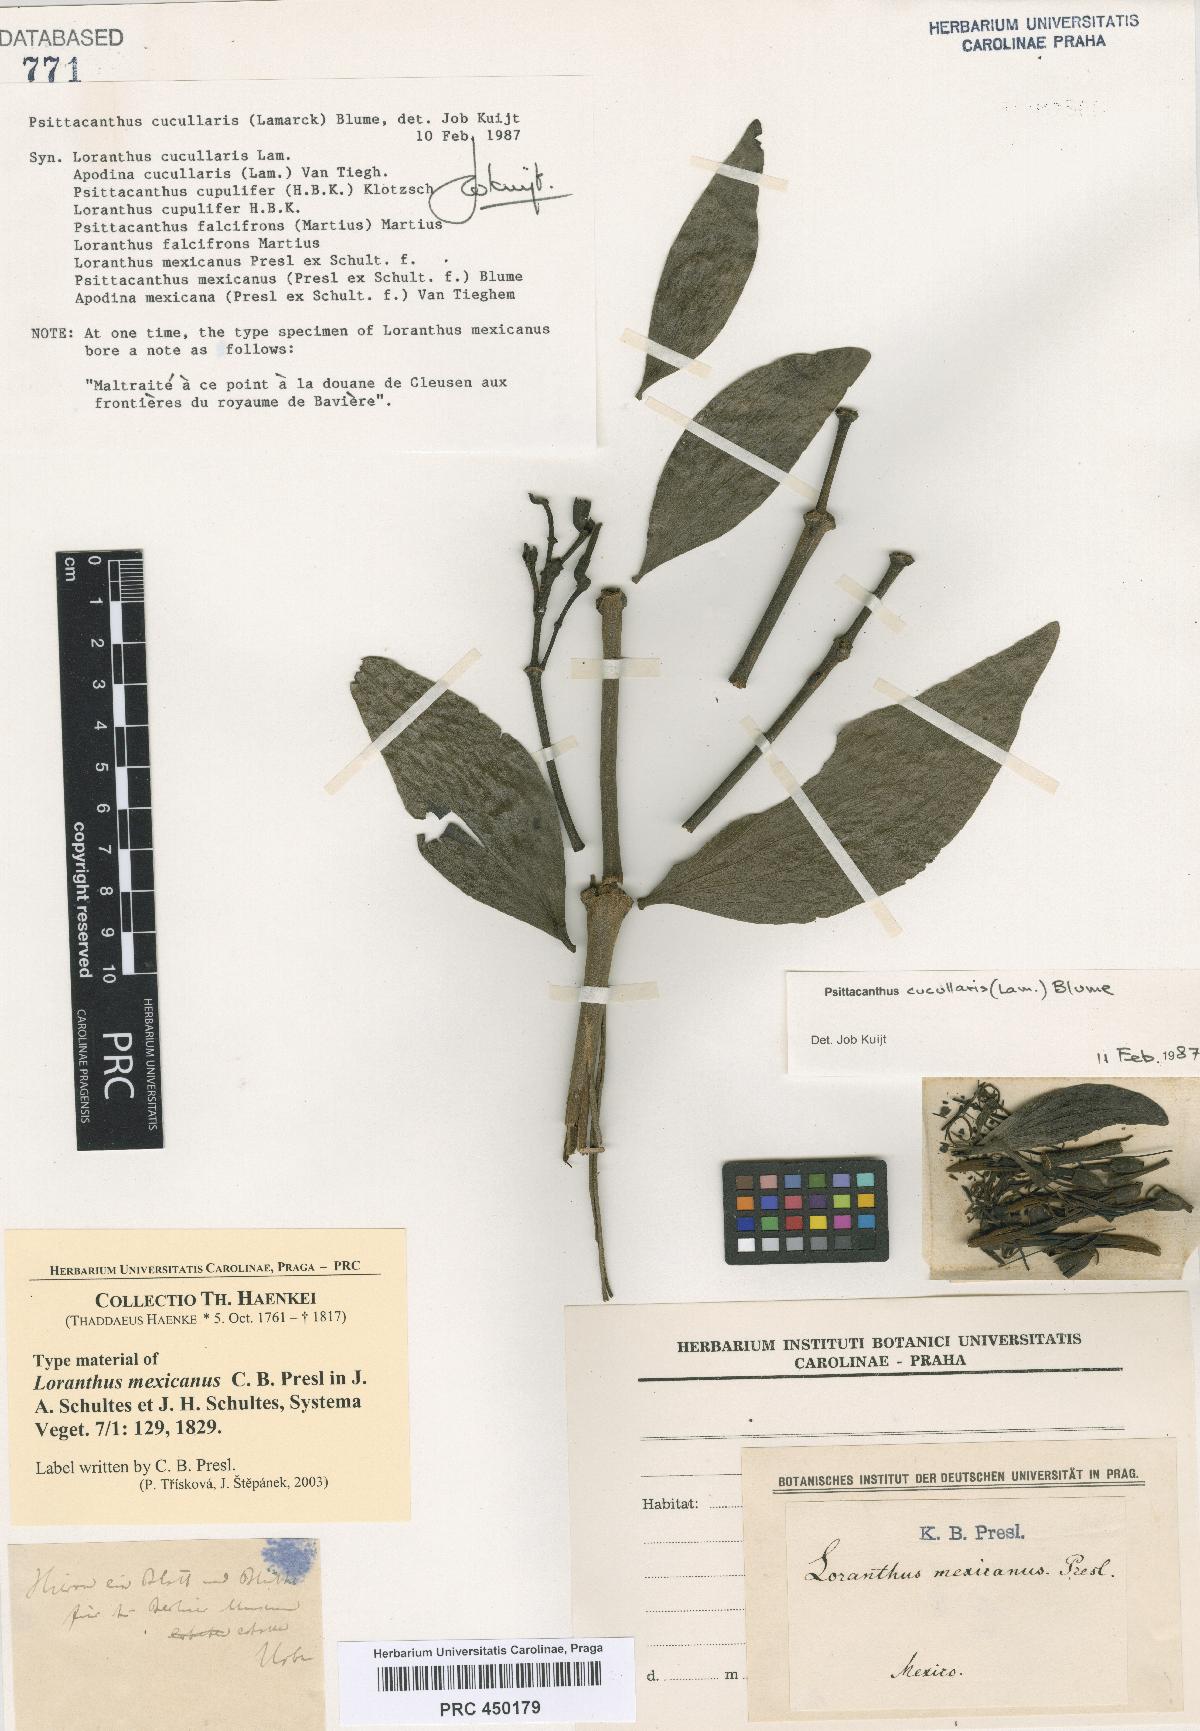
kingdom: Plantae
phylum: Tracheophyta
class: Magnoliopsida
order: Santalales
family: Loranthaceae
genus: Psittacanthus
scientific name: Psittacanthus cucullaris
